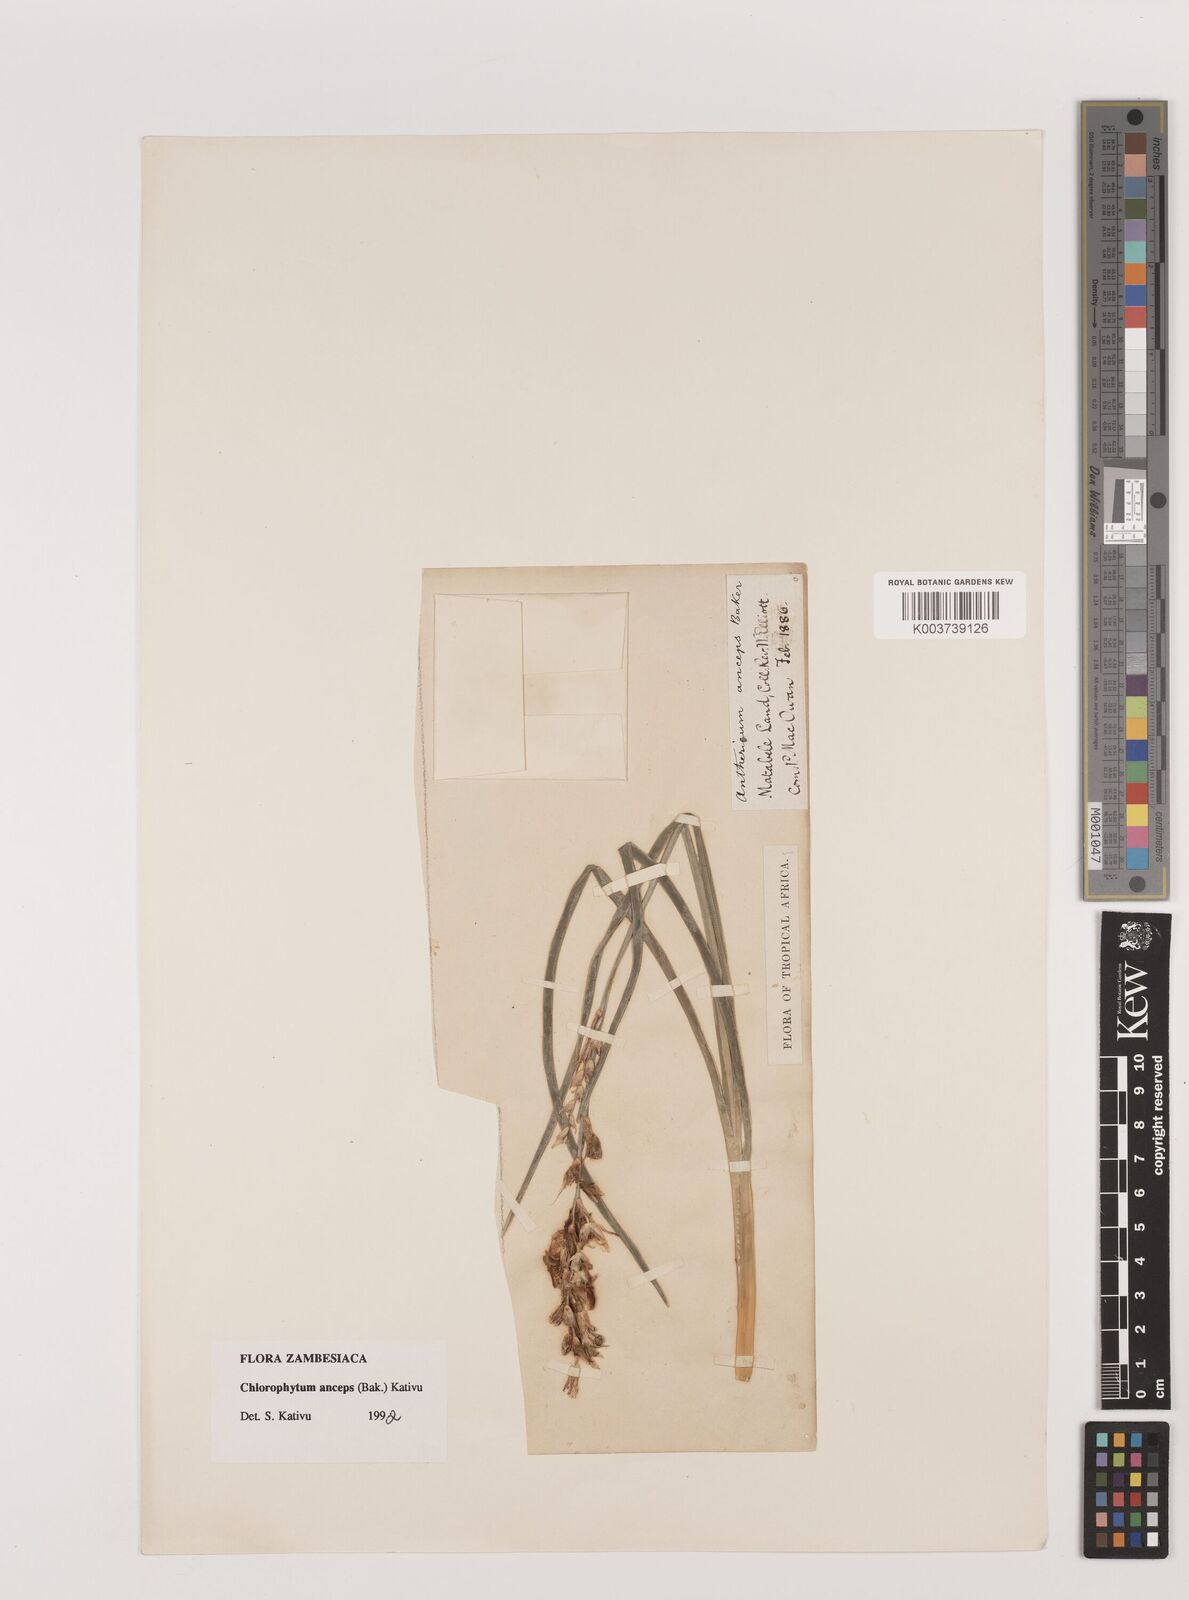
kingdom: Plantae
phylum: Tracheophyta
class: Liliopsida
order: Asparagales
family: Asparagaceae
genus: Chlorophytum
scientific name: Chlorophytum anceps
